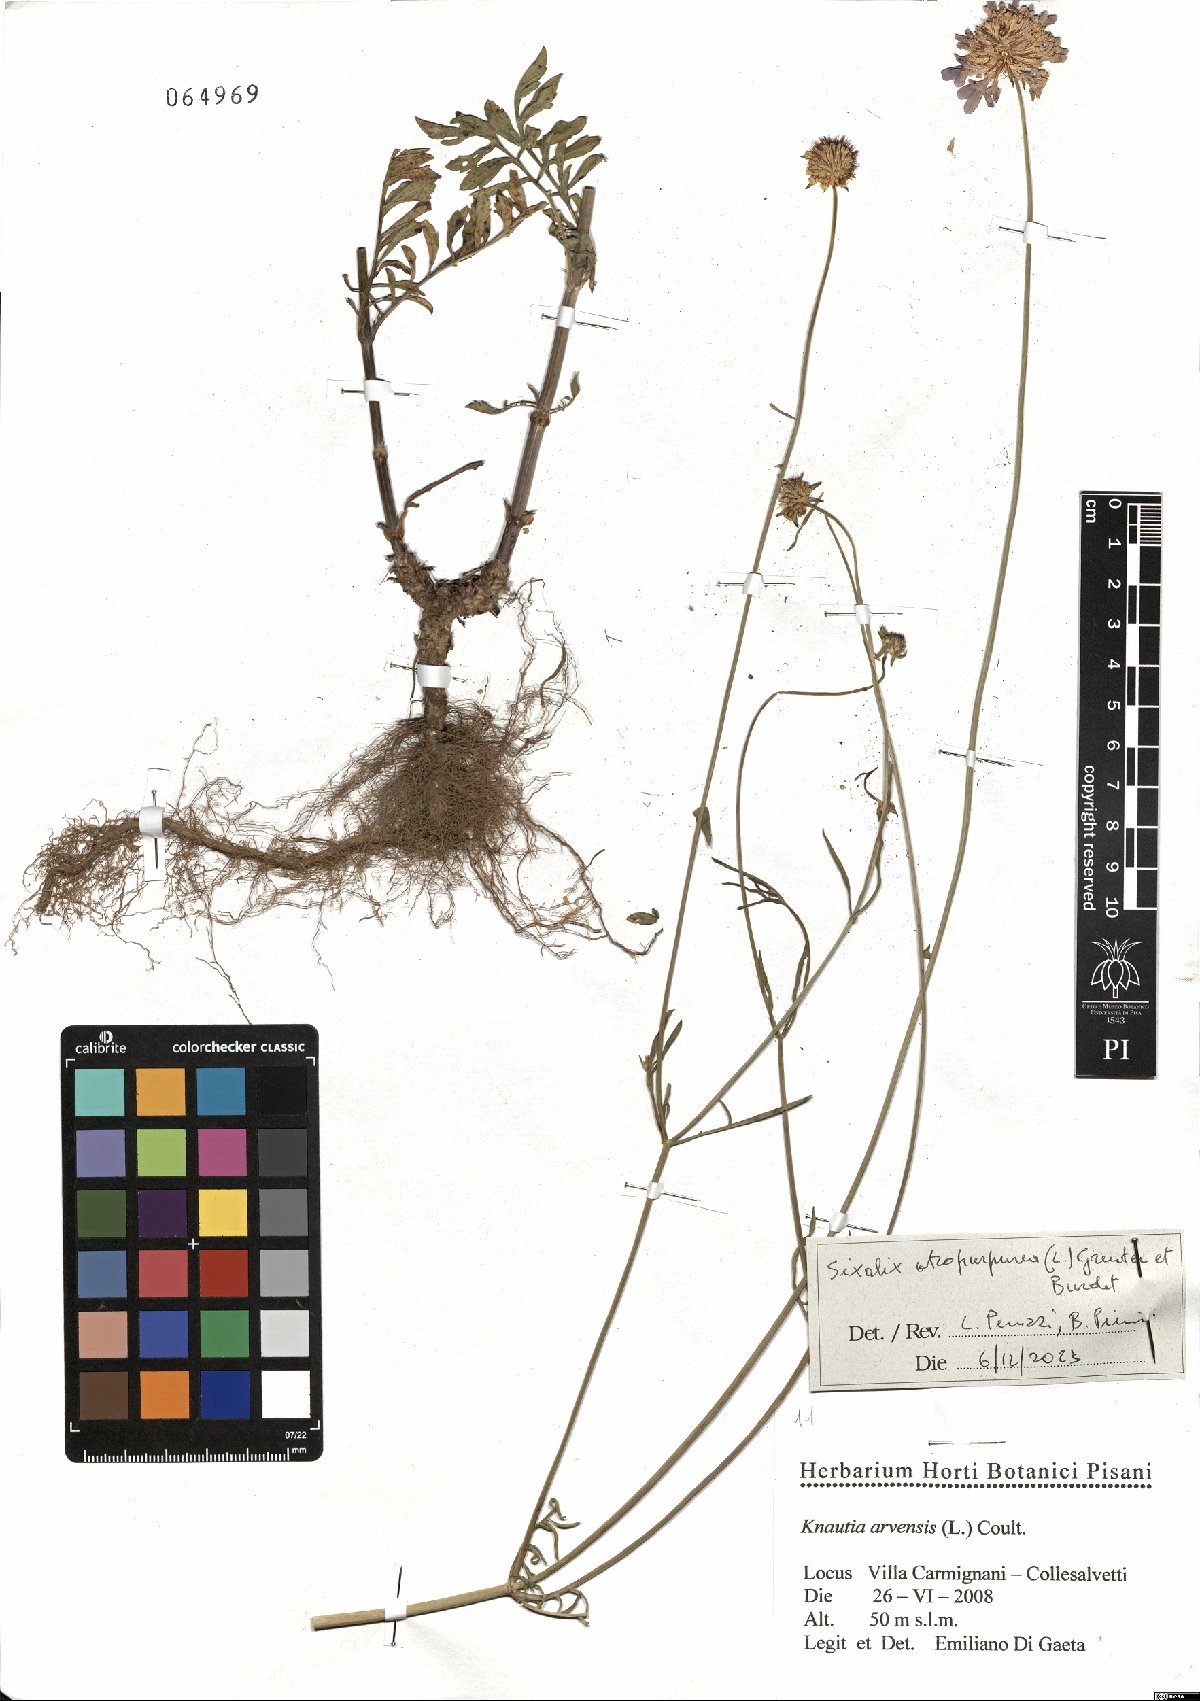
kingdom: Plantae
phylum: Tracheophyta
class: Magnoliopsida
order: Dipsacales
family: Caprifoliaceae
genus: Sixalix
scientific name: Sixalix atropurpurea
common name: Sweet scabious
